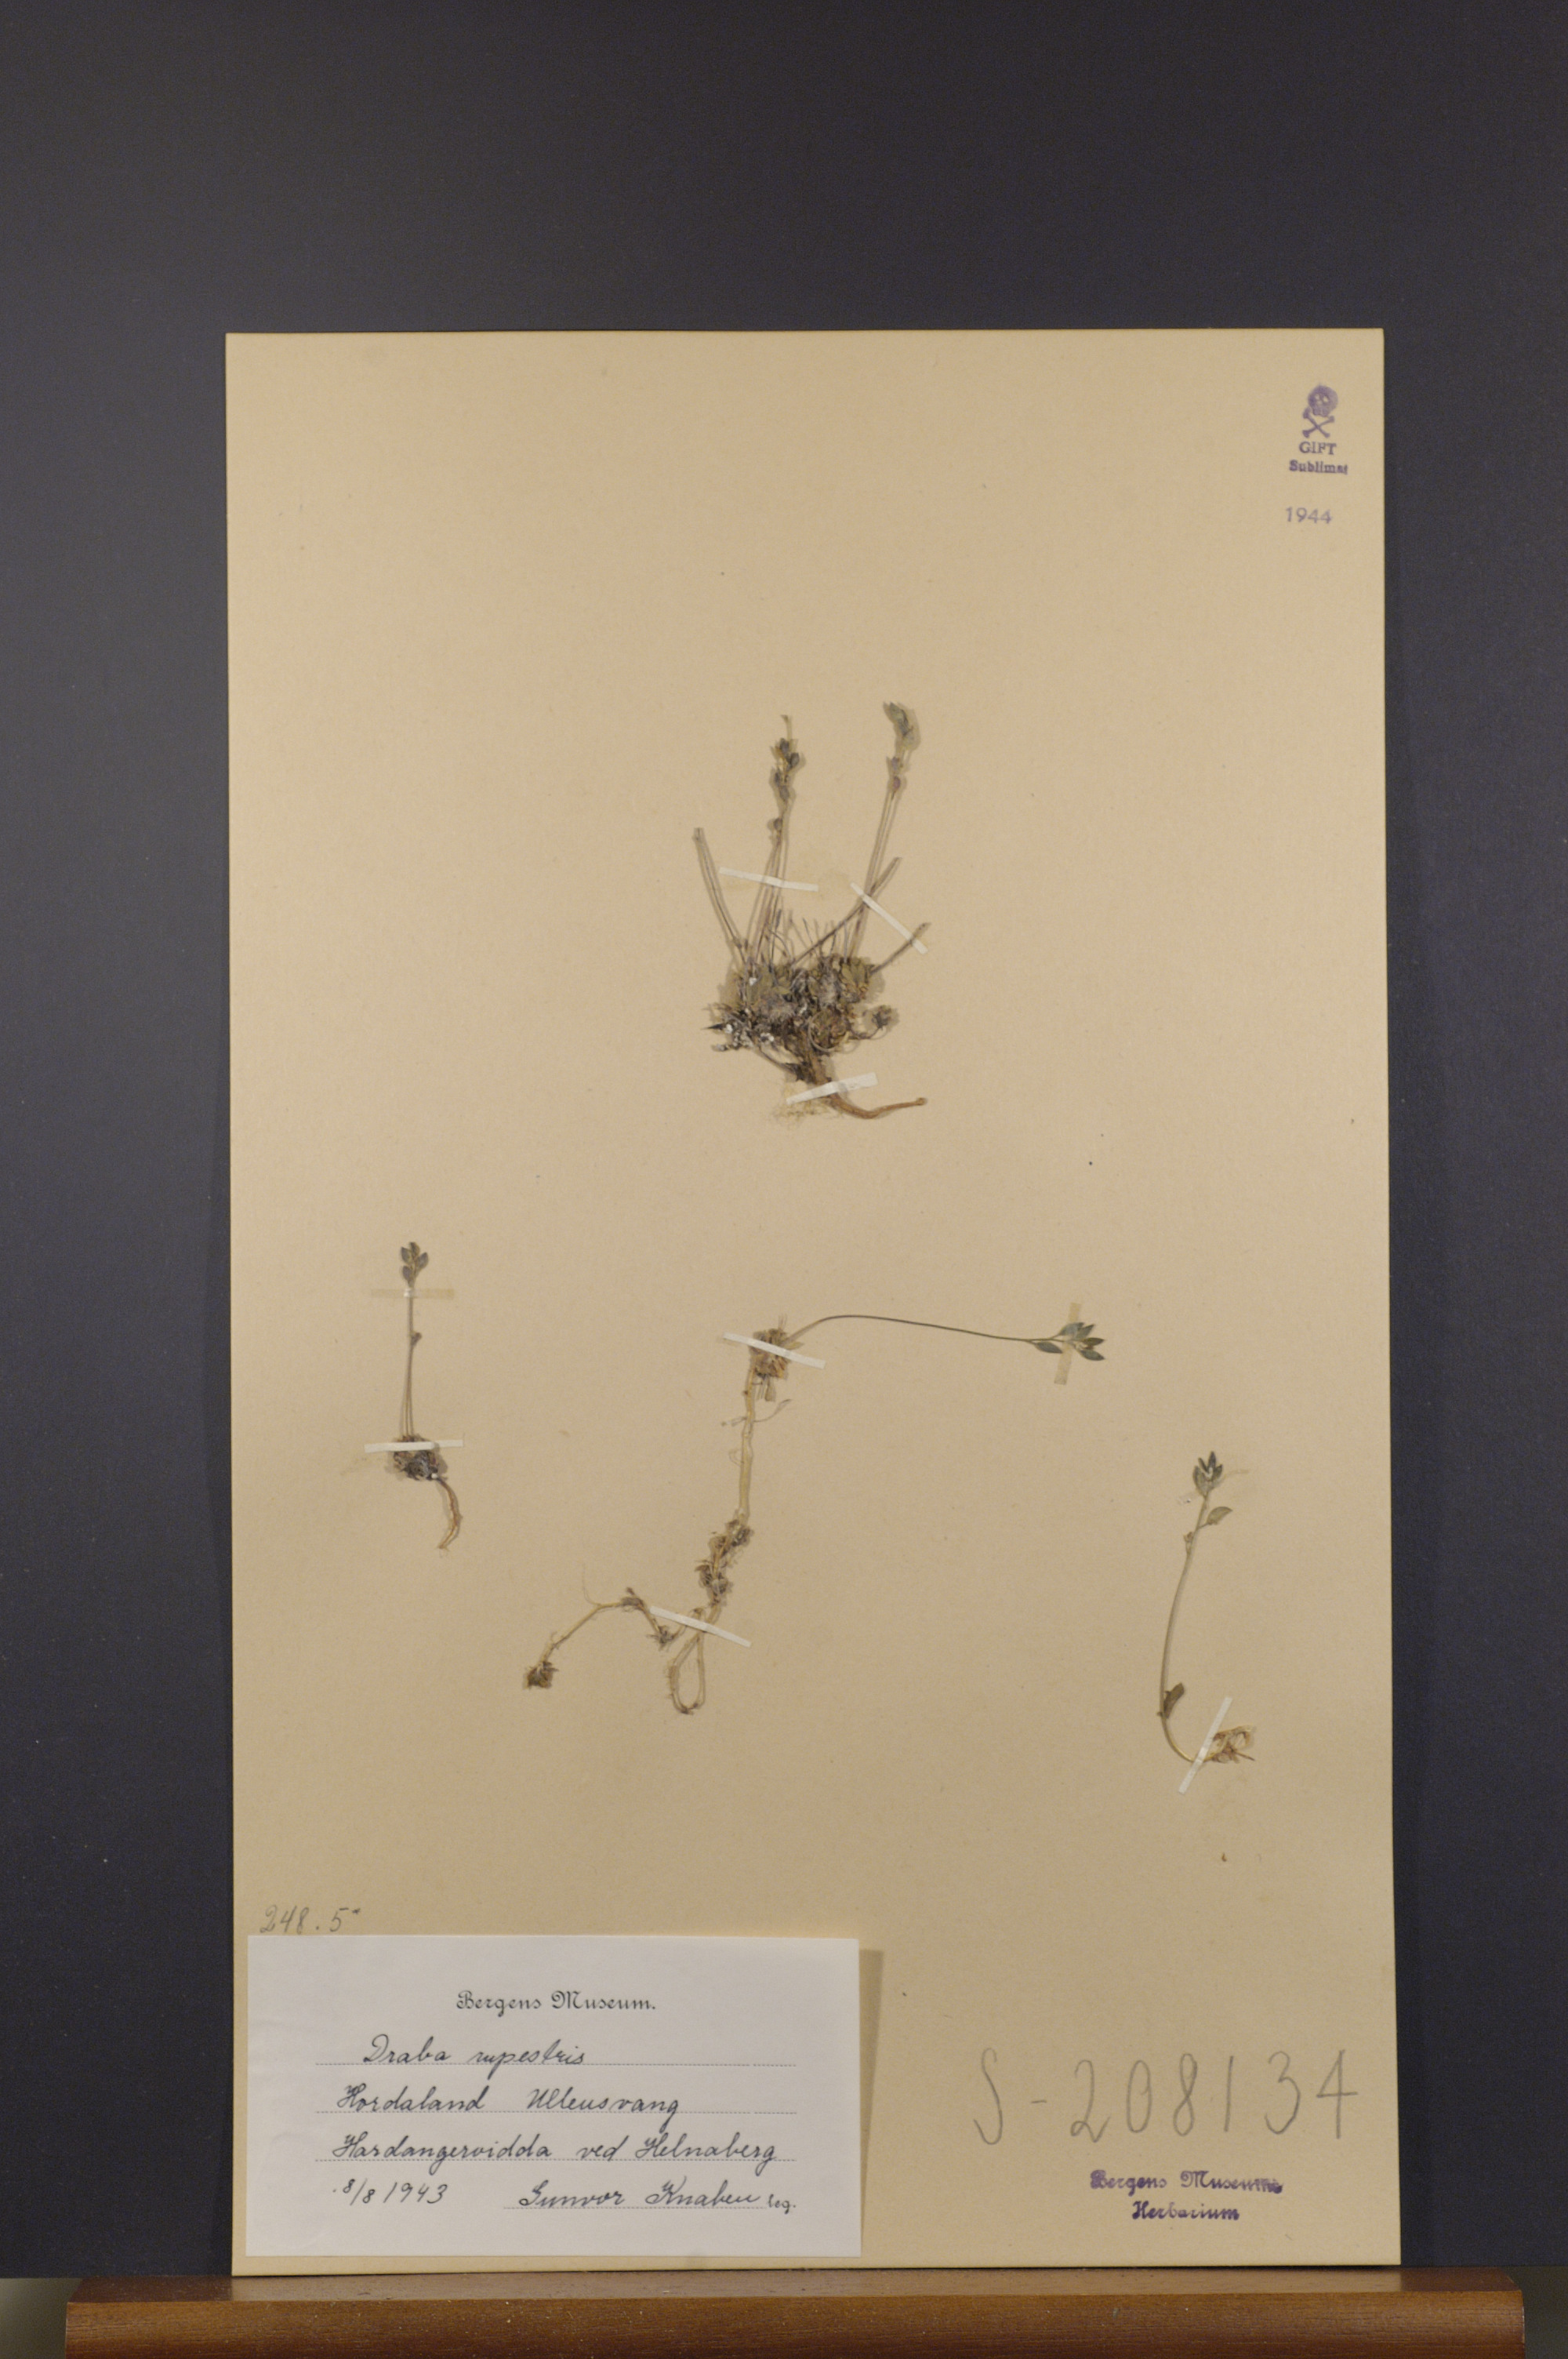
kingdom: Plantae
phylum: Tracheophyta
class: Magnoliopsida
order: Brassicales
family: Brassicaceae
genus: Draba
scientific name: Draba norvegica
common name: Rock whitlowgrass
